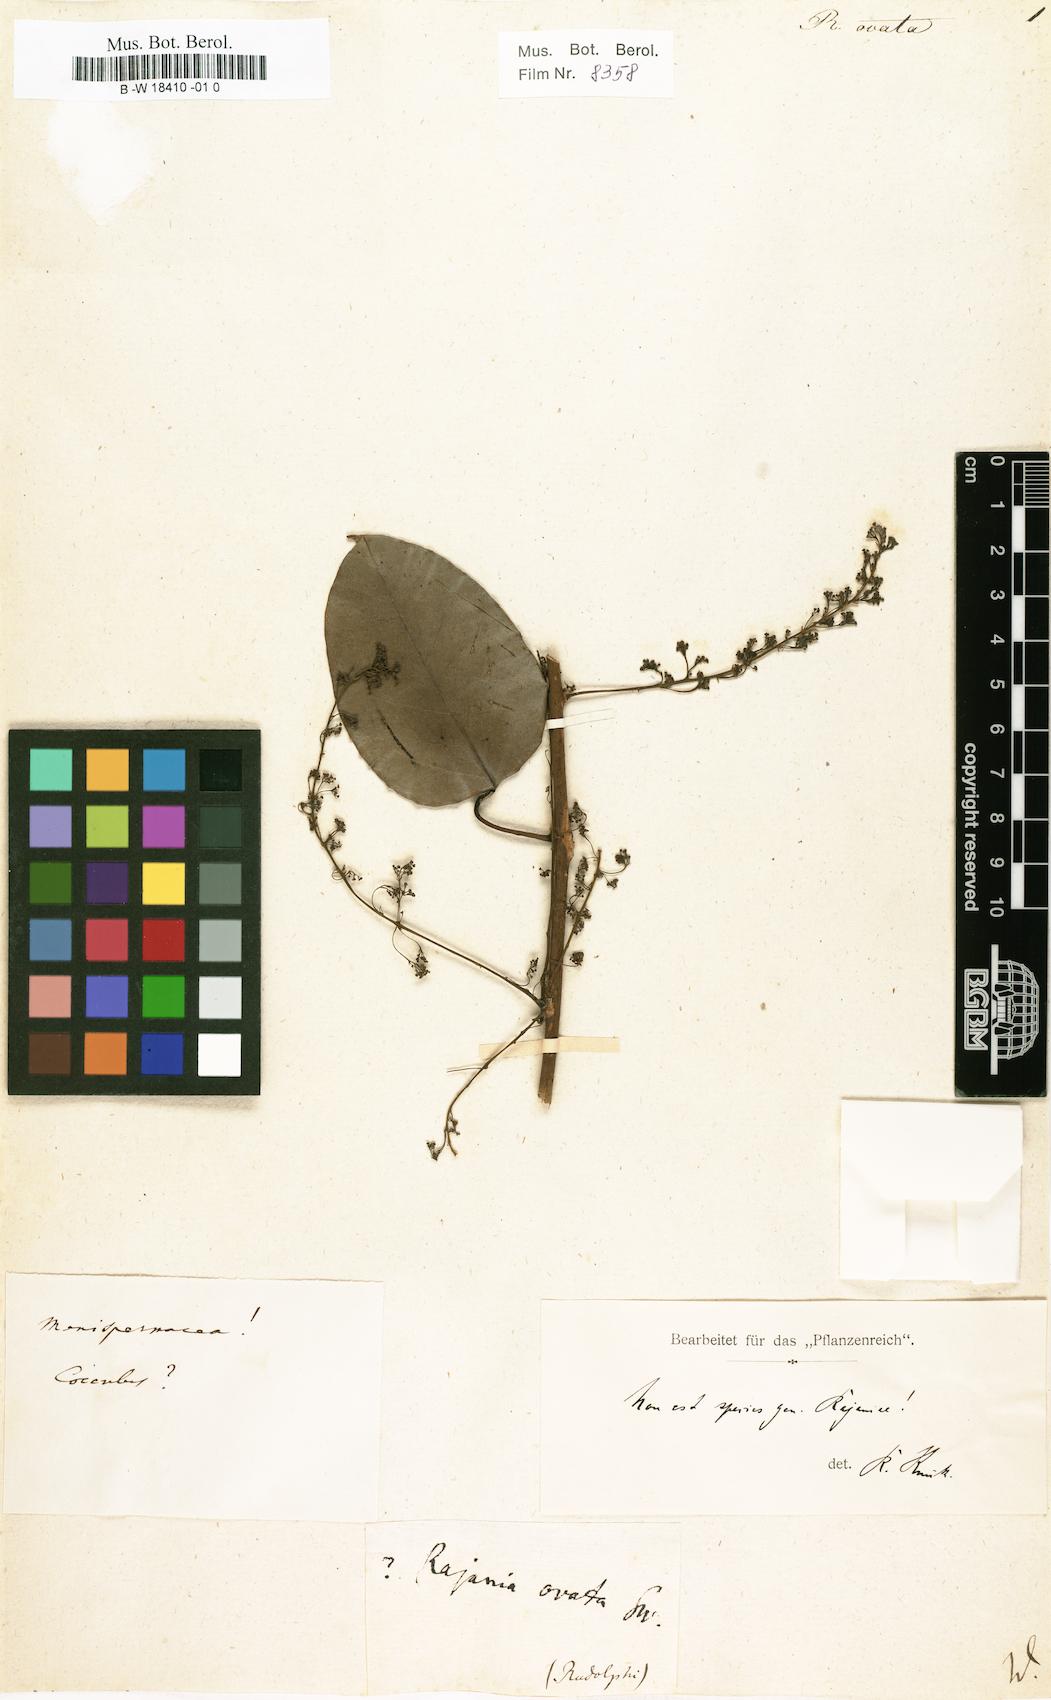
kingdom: Plantae
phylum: Tracheophyta
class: Magnoliopsida
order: Caryophyllales
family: Polygonaceae
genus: Brunnichia
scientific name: Brunnichia ovata
